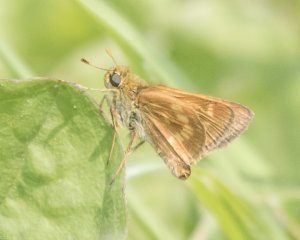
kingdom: Animalia
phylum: Arthropoda
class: Insecta
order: Lepidoptera
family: Hesperiidae
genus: Polites
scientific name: Polites
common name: Long Dash Skipper
